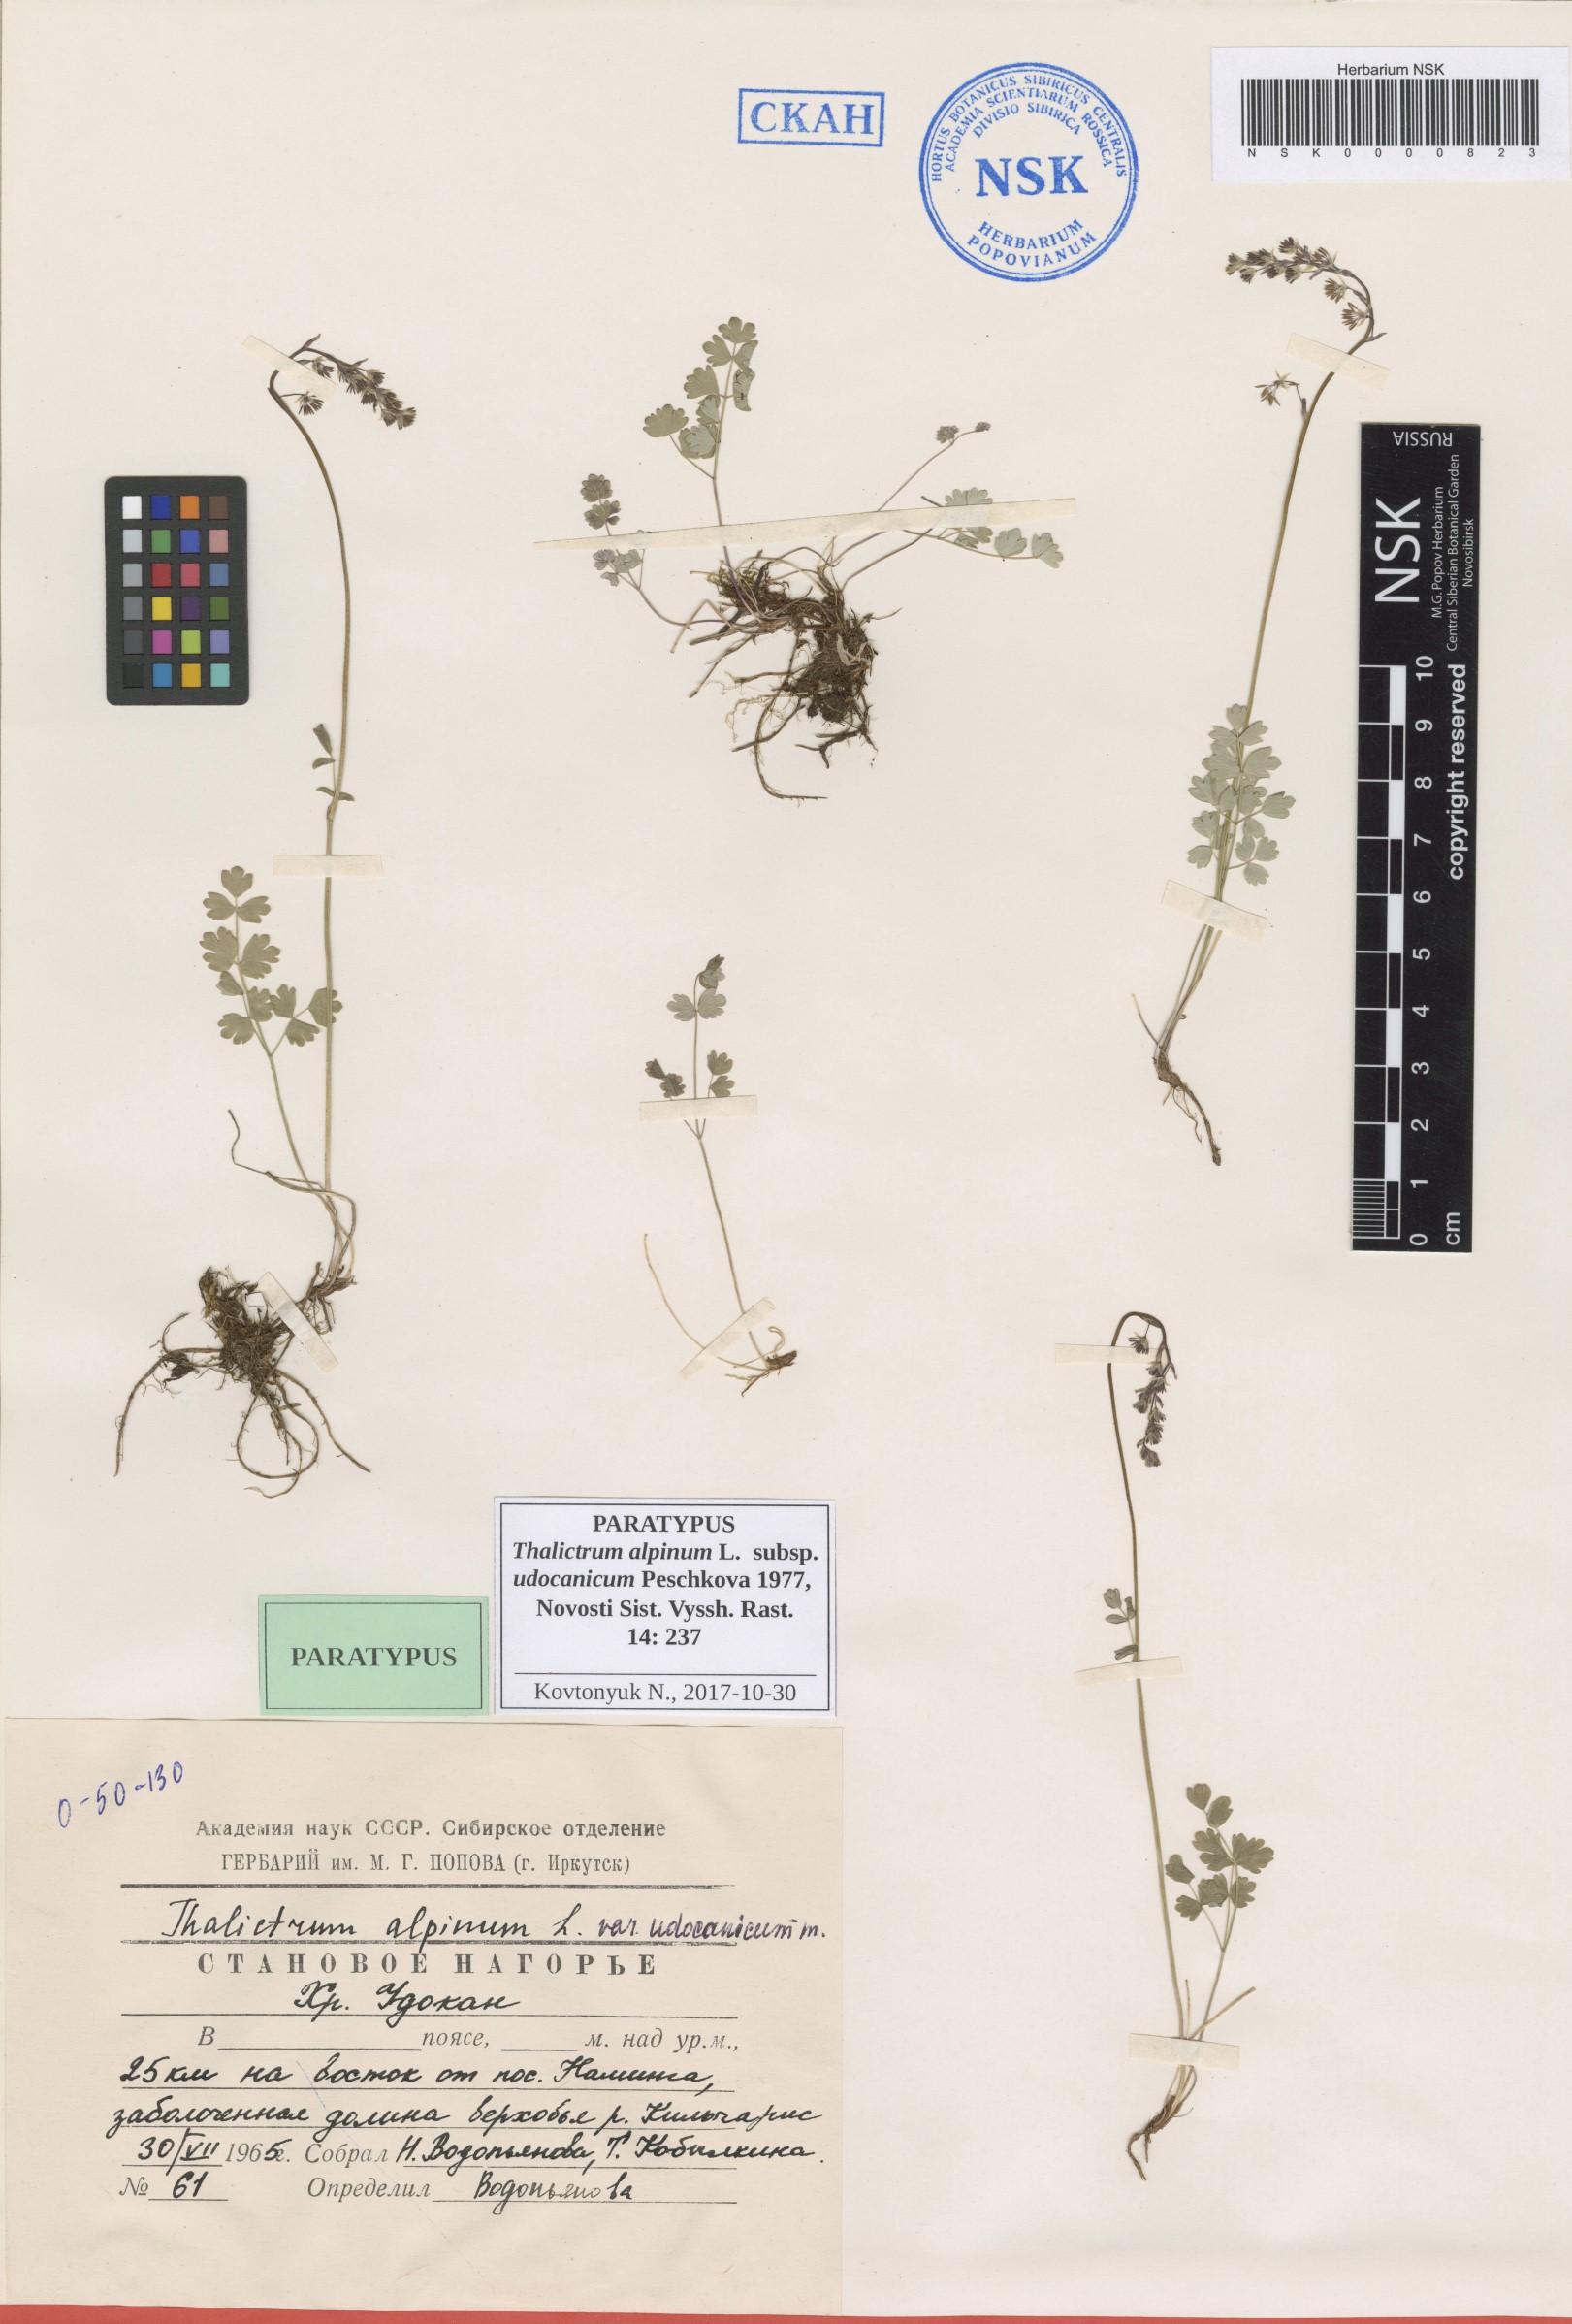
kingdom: Plantae
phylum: Tracheophyta
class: Magnoliopsida
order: Ranunculales
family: Ranunculaceae
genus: Thalictrum
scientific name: Thalictrum alpinum
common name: Alpine meadow-rue
